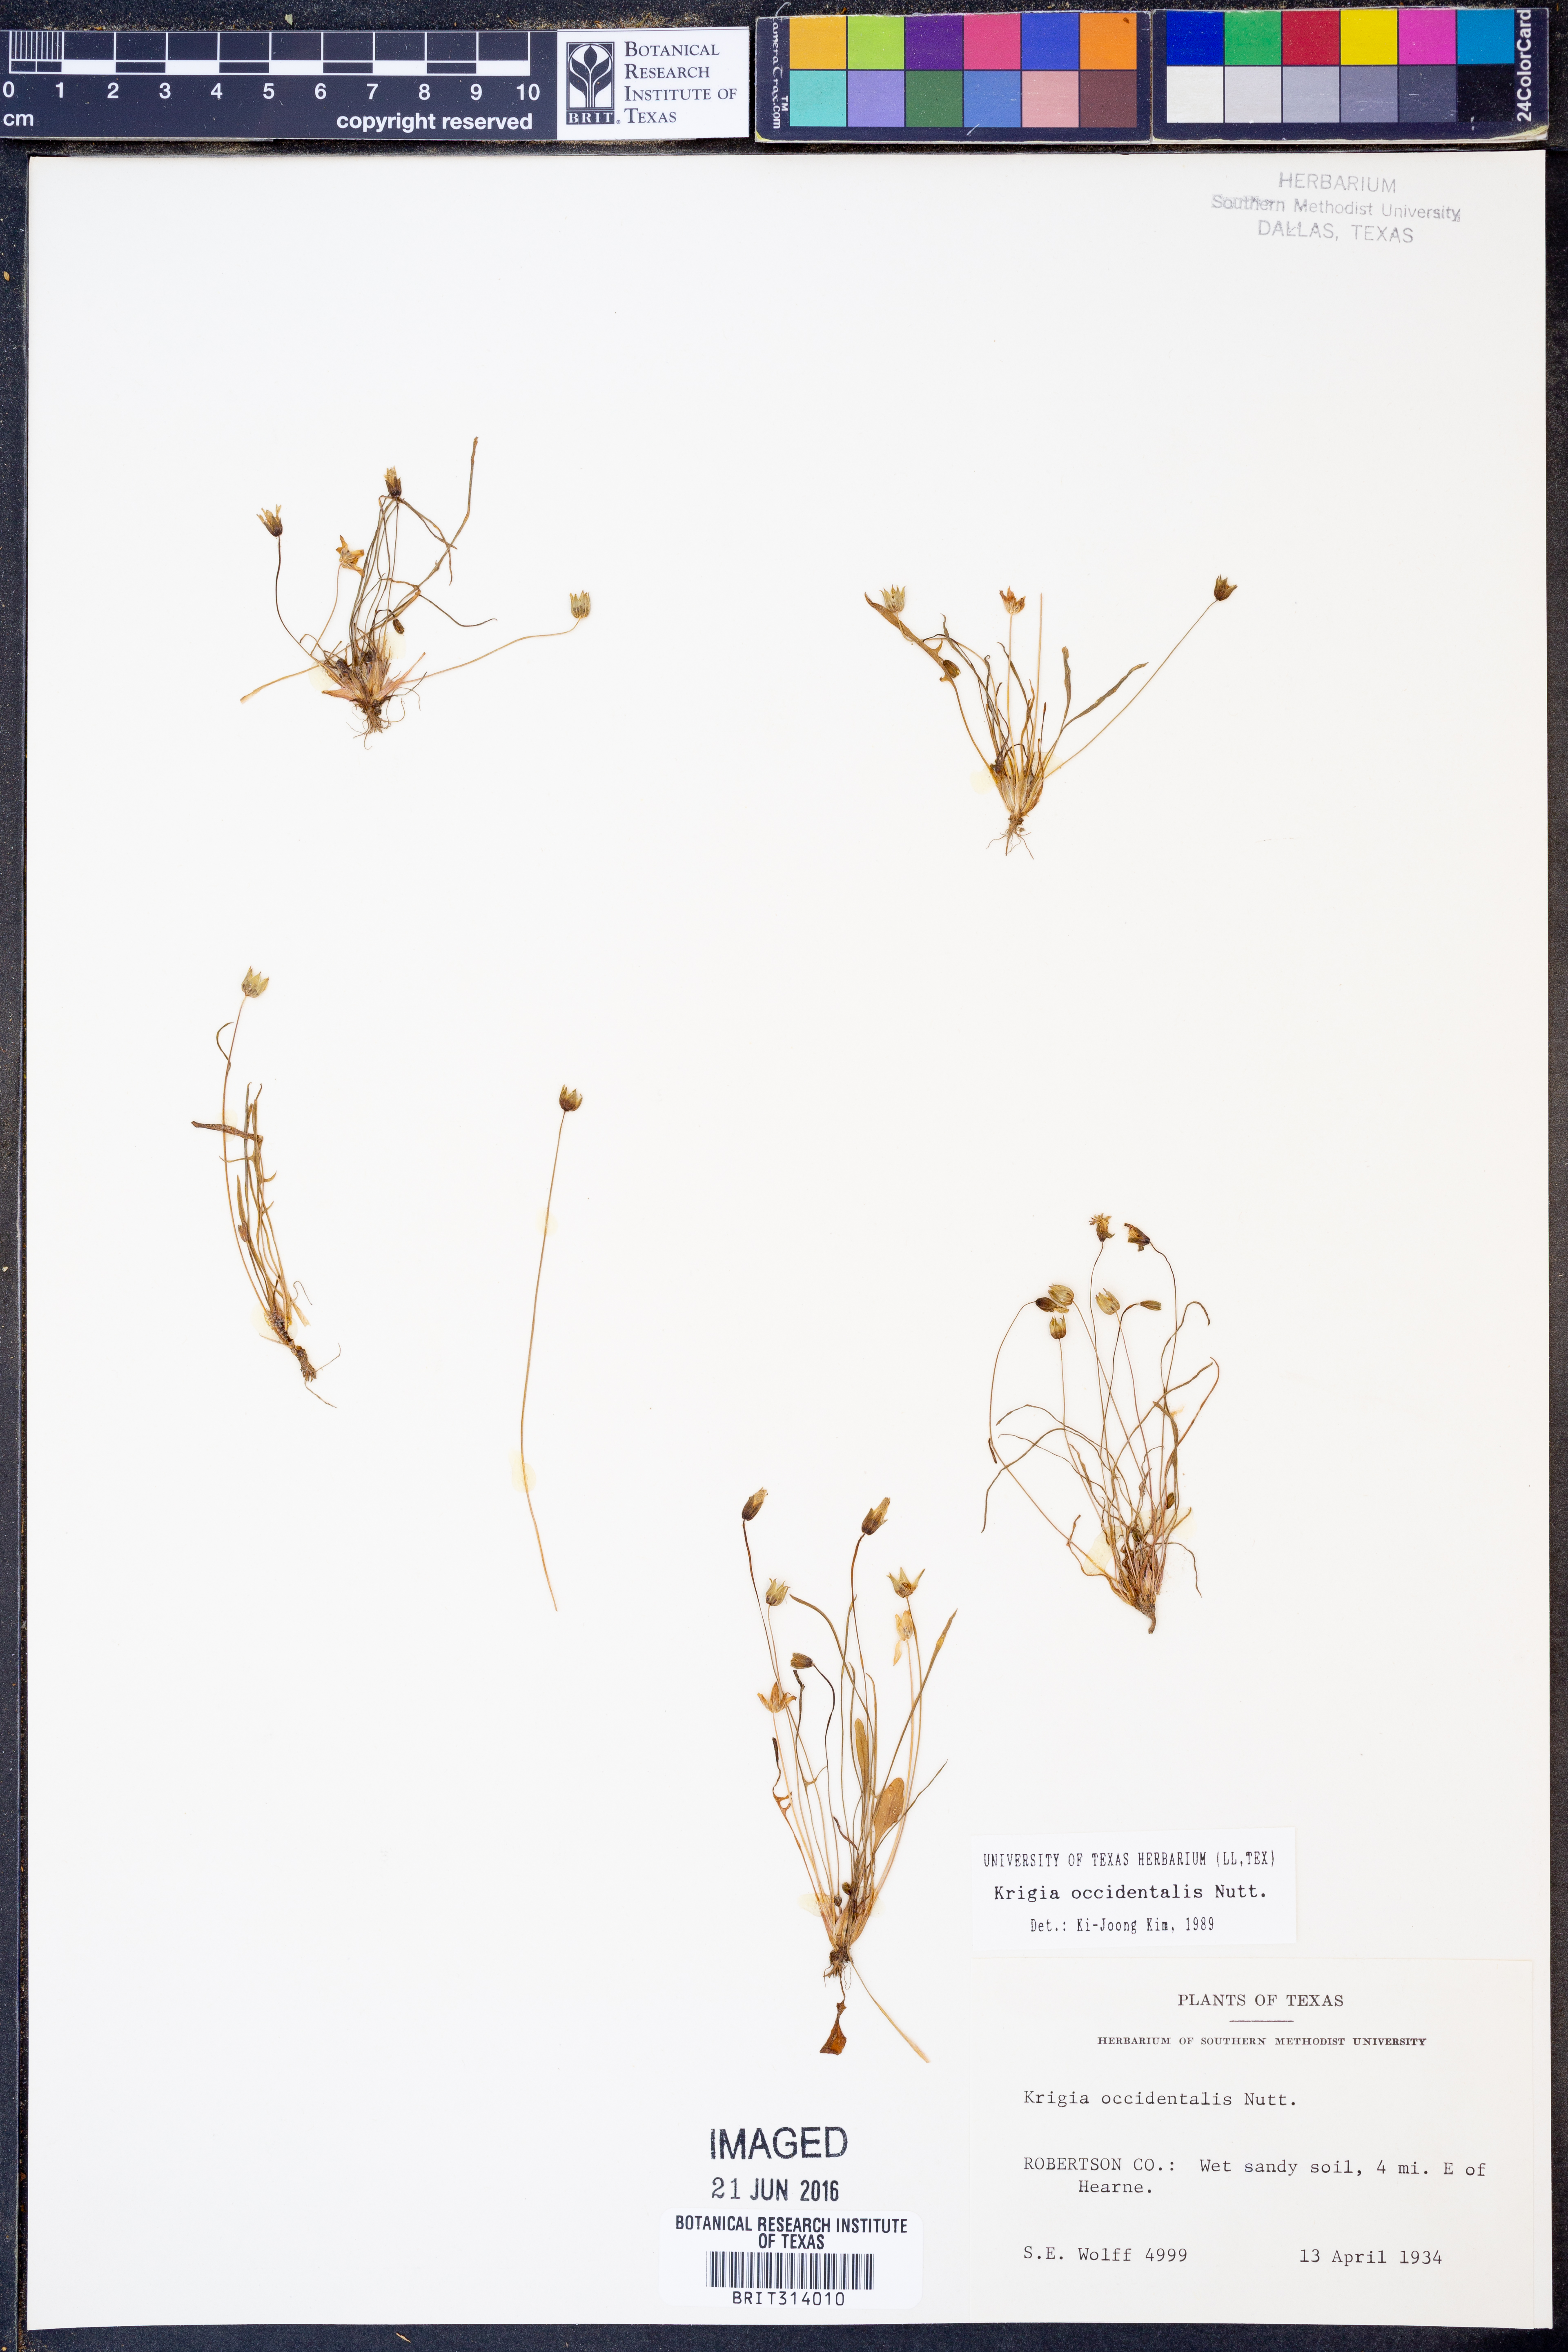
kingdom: Plantae
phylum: Tracheophyta
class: Magnoliopsida
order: Asterales
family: Asteraceae
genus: Krigia
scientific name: Krigia occidentalis
